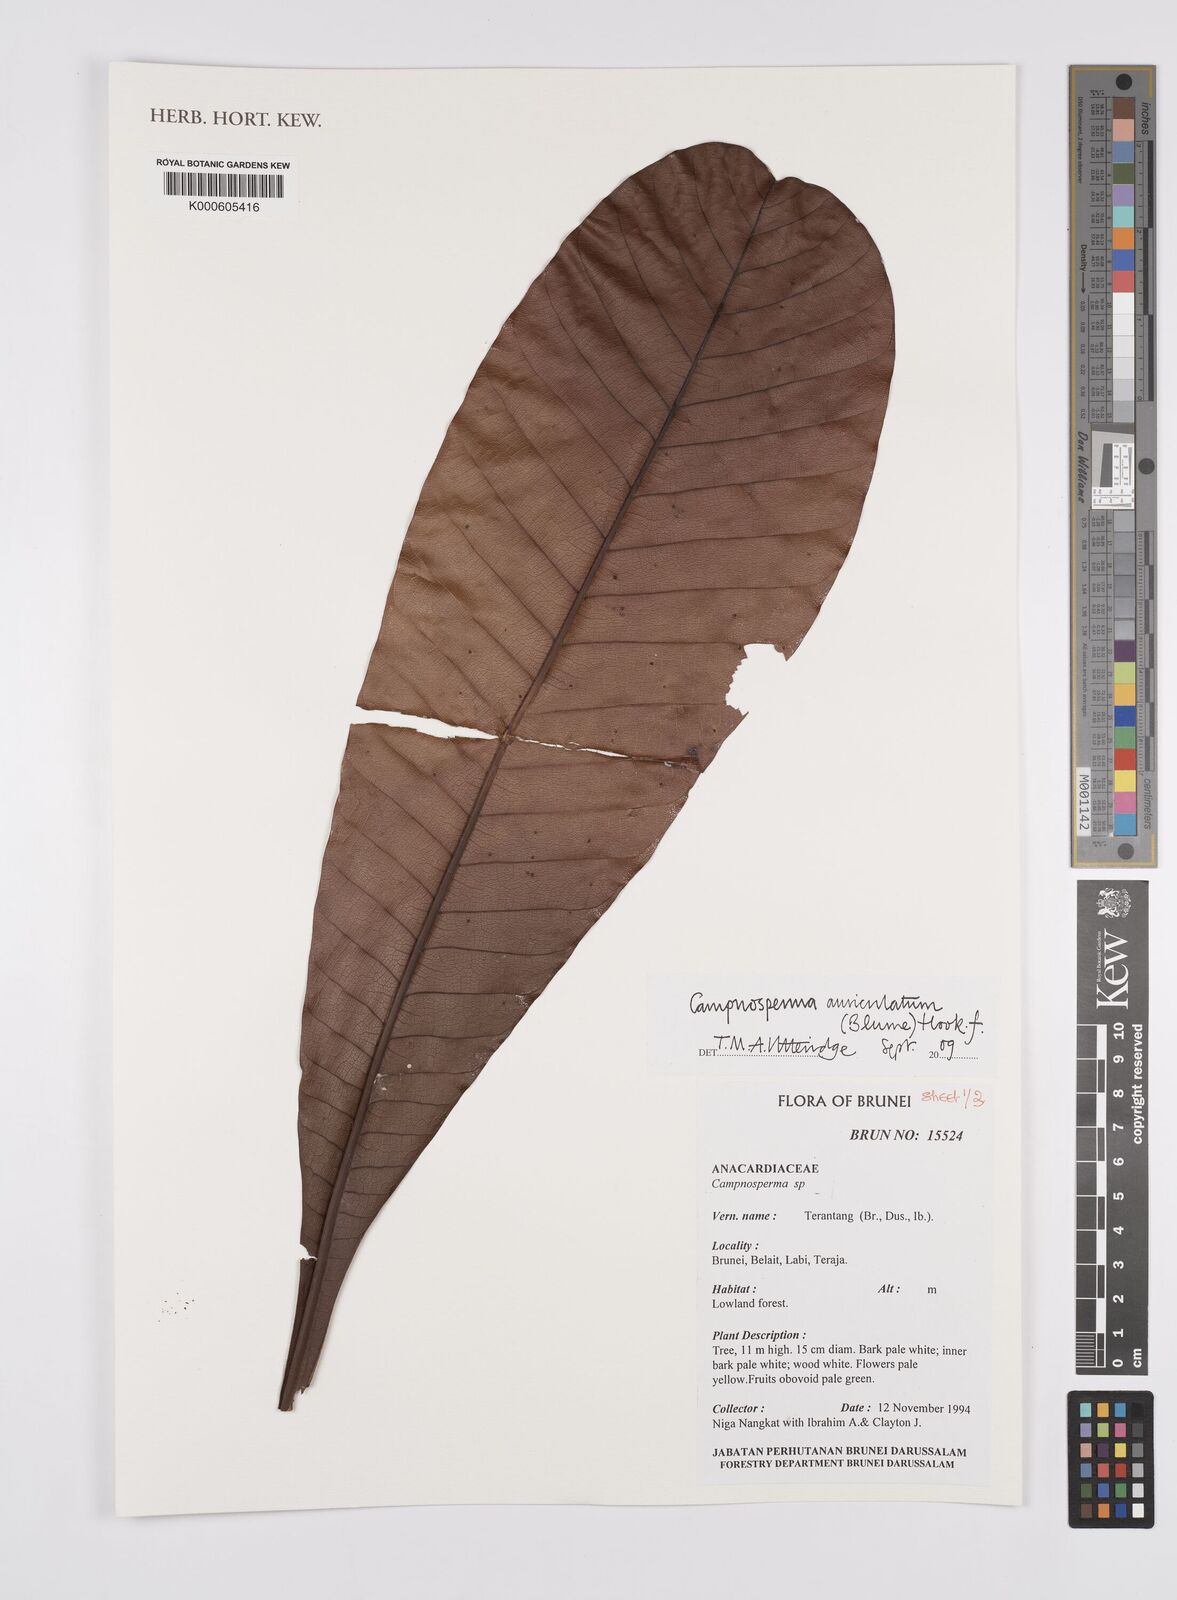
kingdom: Plantae
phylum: Tracheophyta
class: Magnoliopsida
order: Sapindales
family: Anacardiaceae
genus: Campnosperma
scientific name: Campnosperma auriculatum
